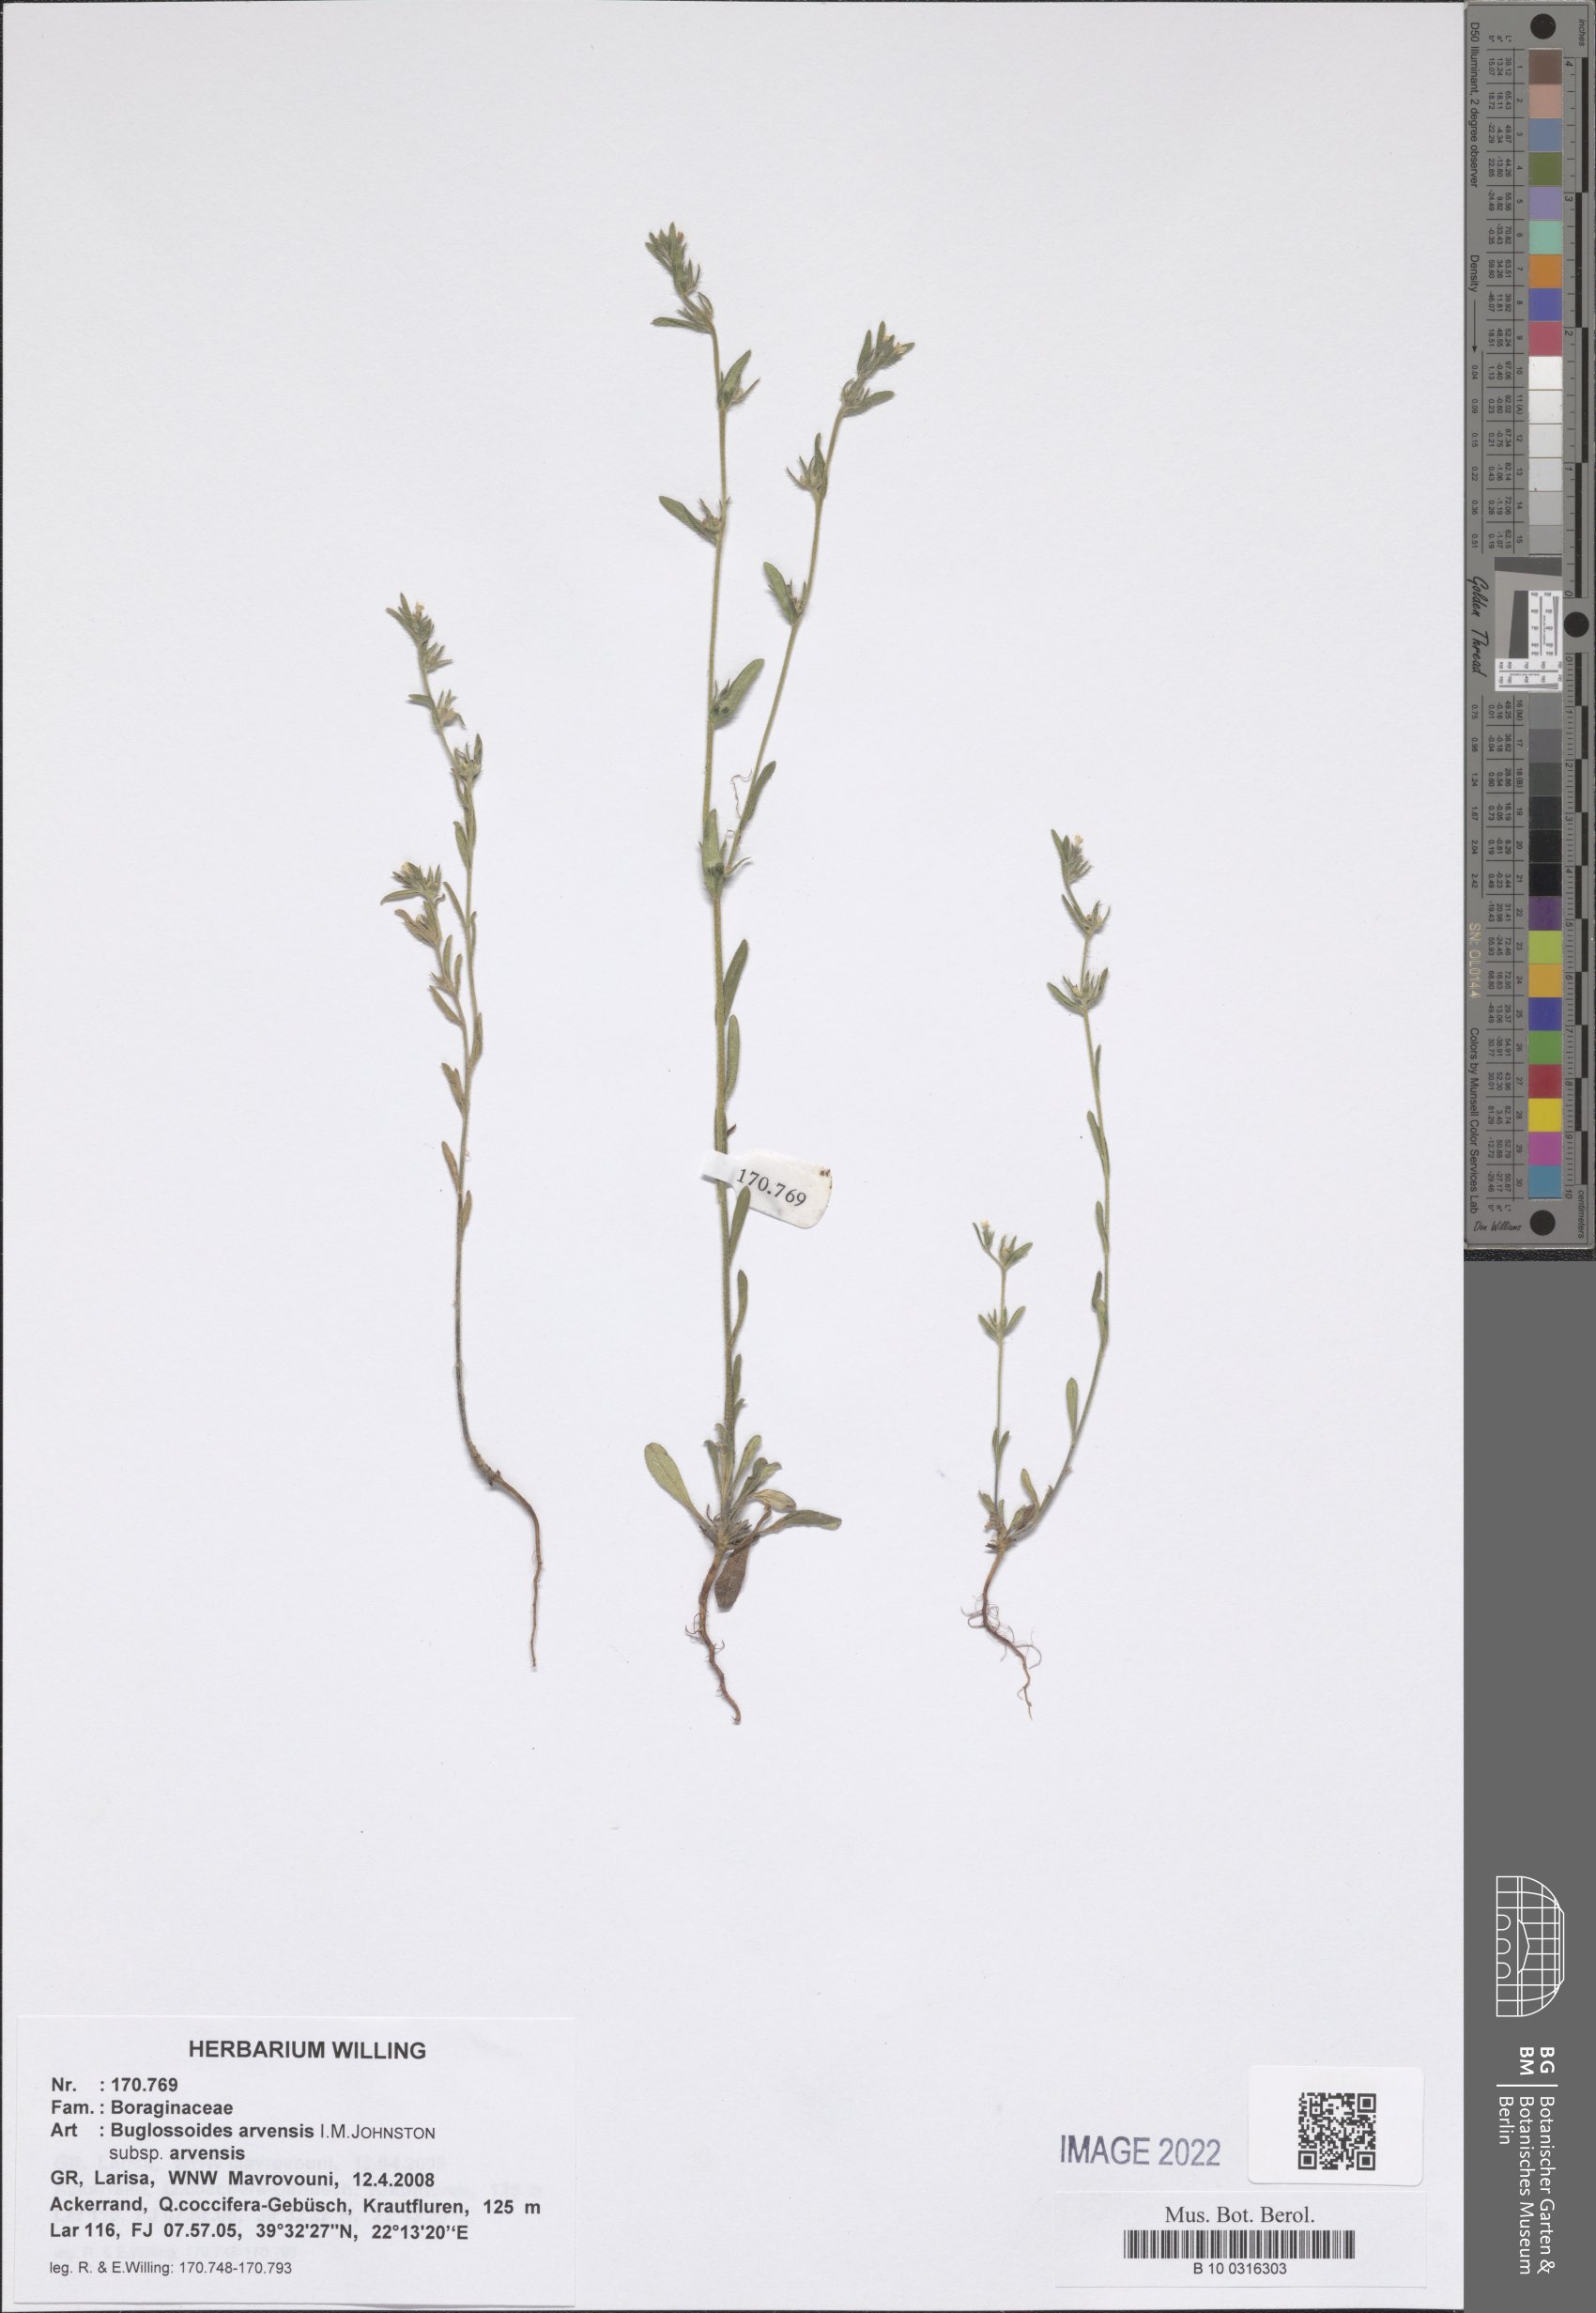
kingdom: Plantae
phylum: Tracheophyta
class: Magnoliopsida
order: Boraginales
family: Boraginaceae
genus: Buglossoides
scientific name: Buglossoides arvensis
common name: Corn gromwell
